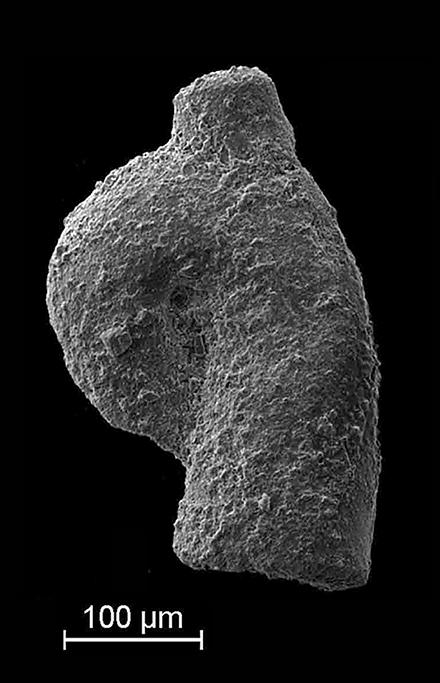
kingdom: Animalia
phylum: Mollusca
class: Rostroconchia
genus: Jinonicella
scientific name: Jinonicella kolebabai
